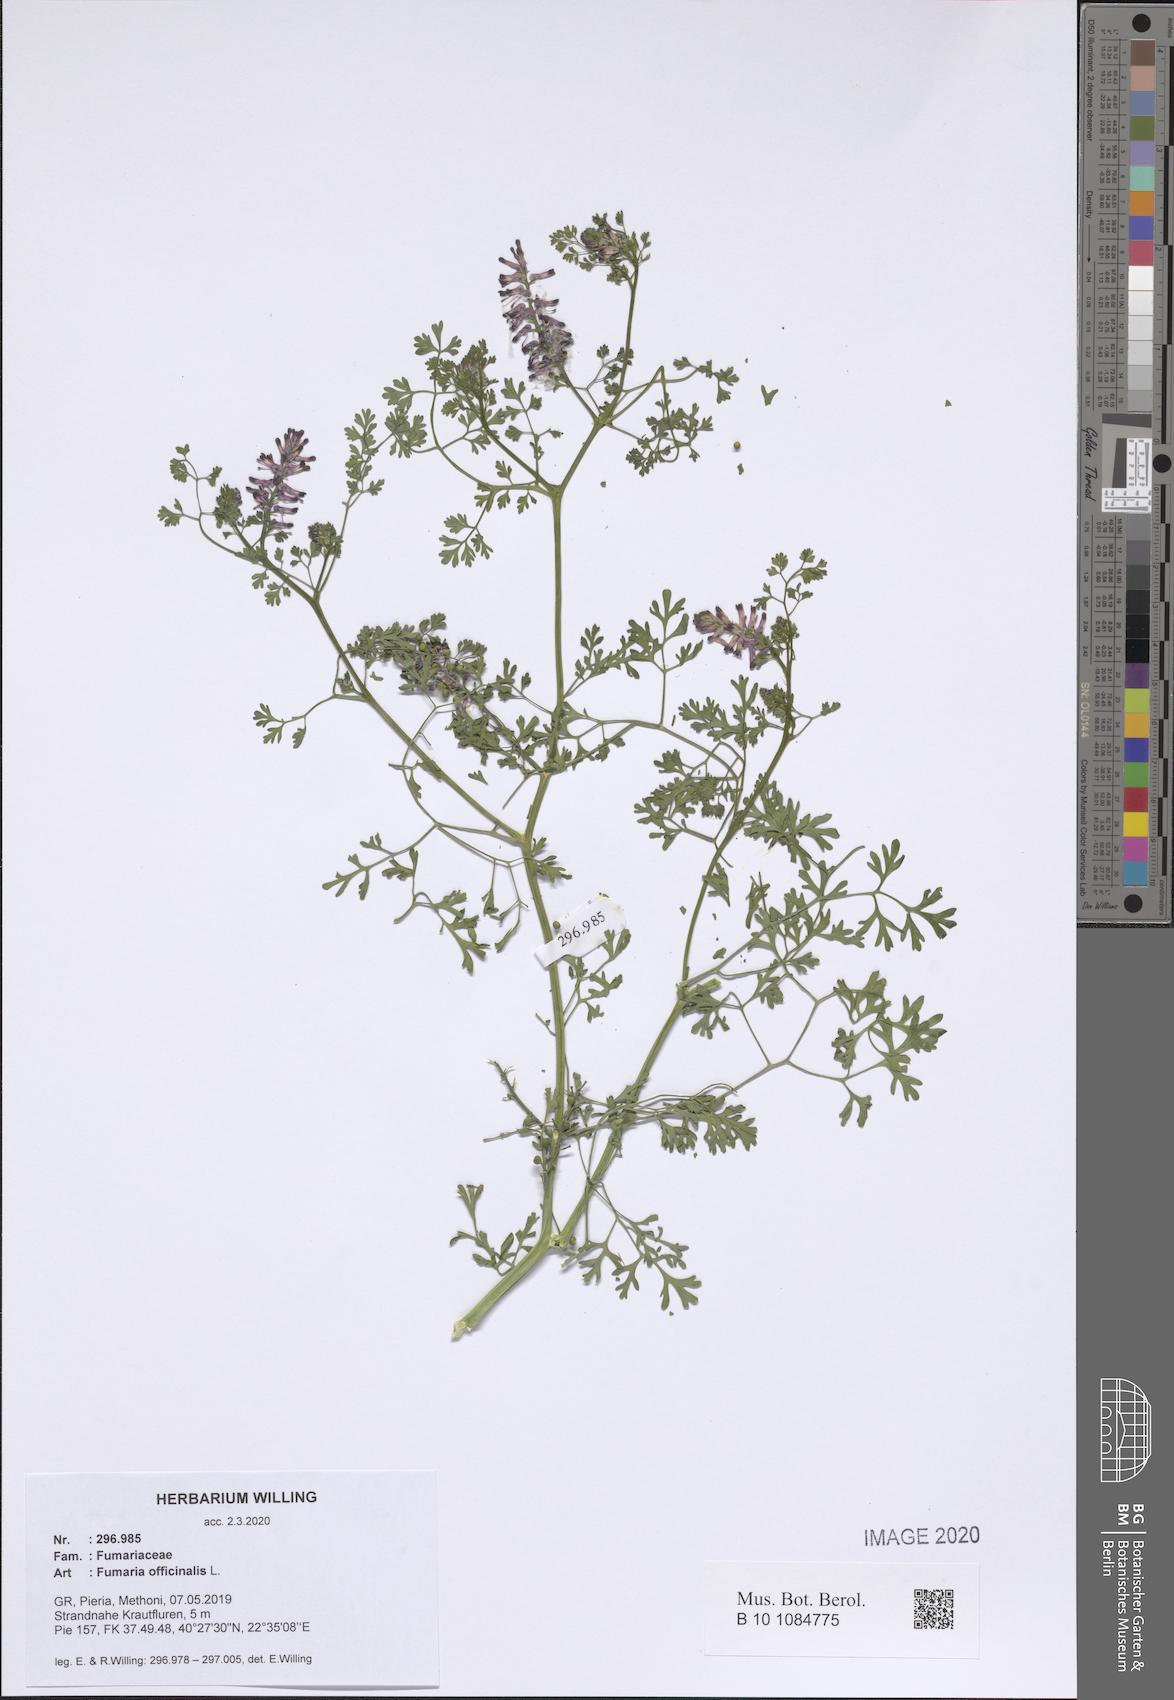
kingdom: Plantae
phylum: Tracheophyta
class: Magnoliopsida
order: Ranunculales
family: Papaveraceae
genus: Fumaria
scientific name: Fumaria officinalis
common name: Common fumitory
